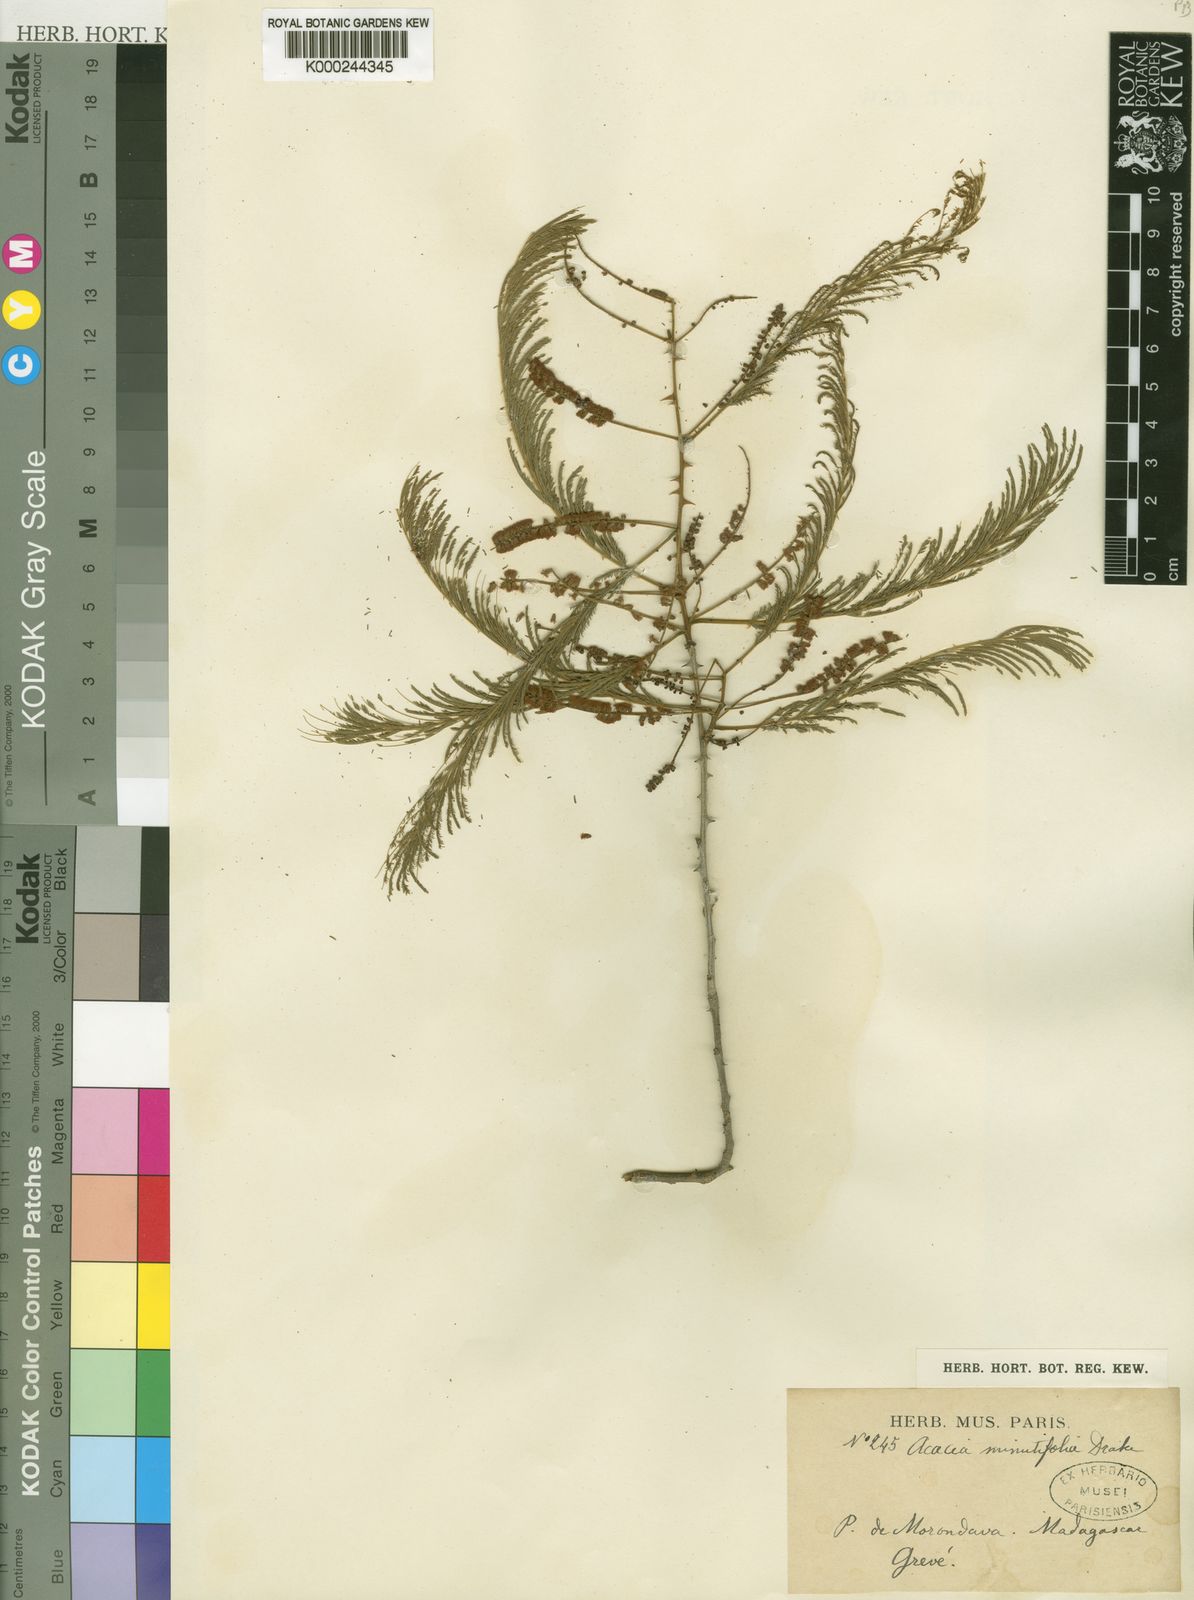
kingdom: Plantae
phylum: Tracheophyta
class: Magnoliopsida
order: Fabales
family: Fabaceae
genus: Acacia
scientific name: Acacia
